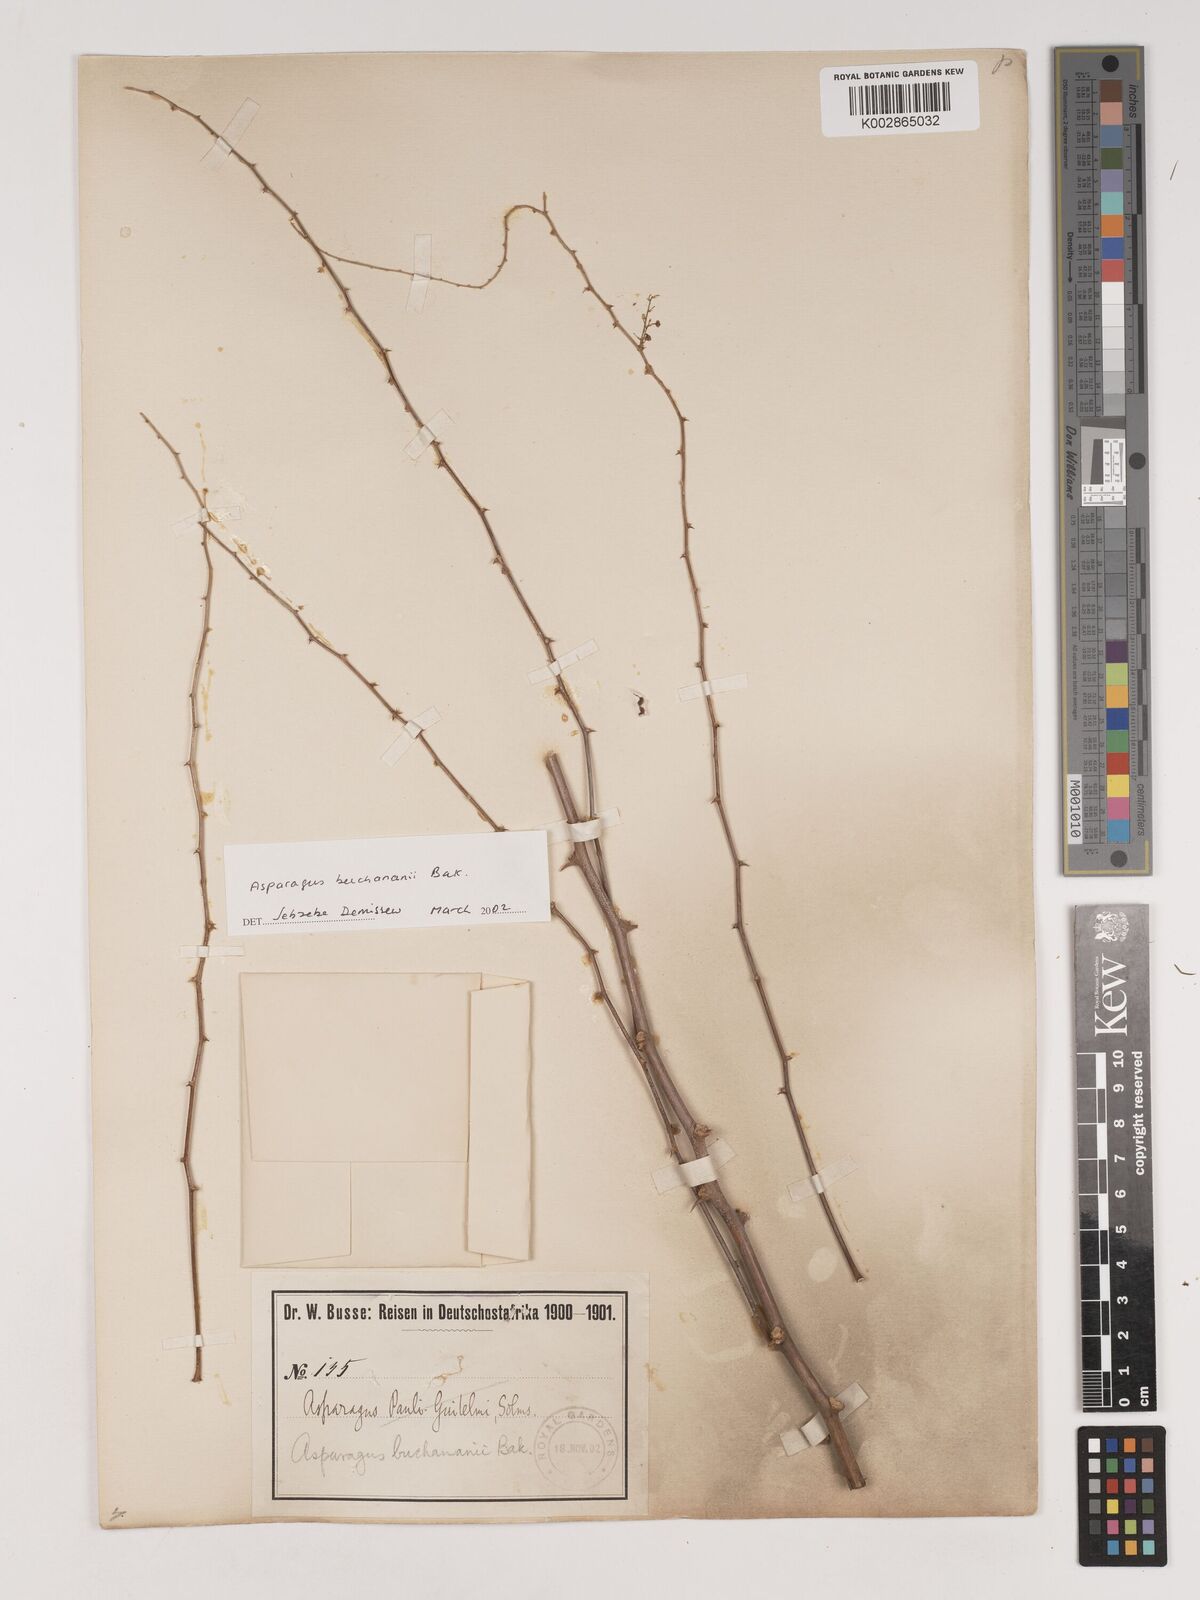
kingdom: Plantae
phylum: Tracheophyta
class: Liliopsida
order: Asparagales
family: Asparagaceae
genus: Asparagus
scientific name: Asparagus buchananii
